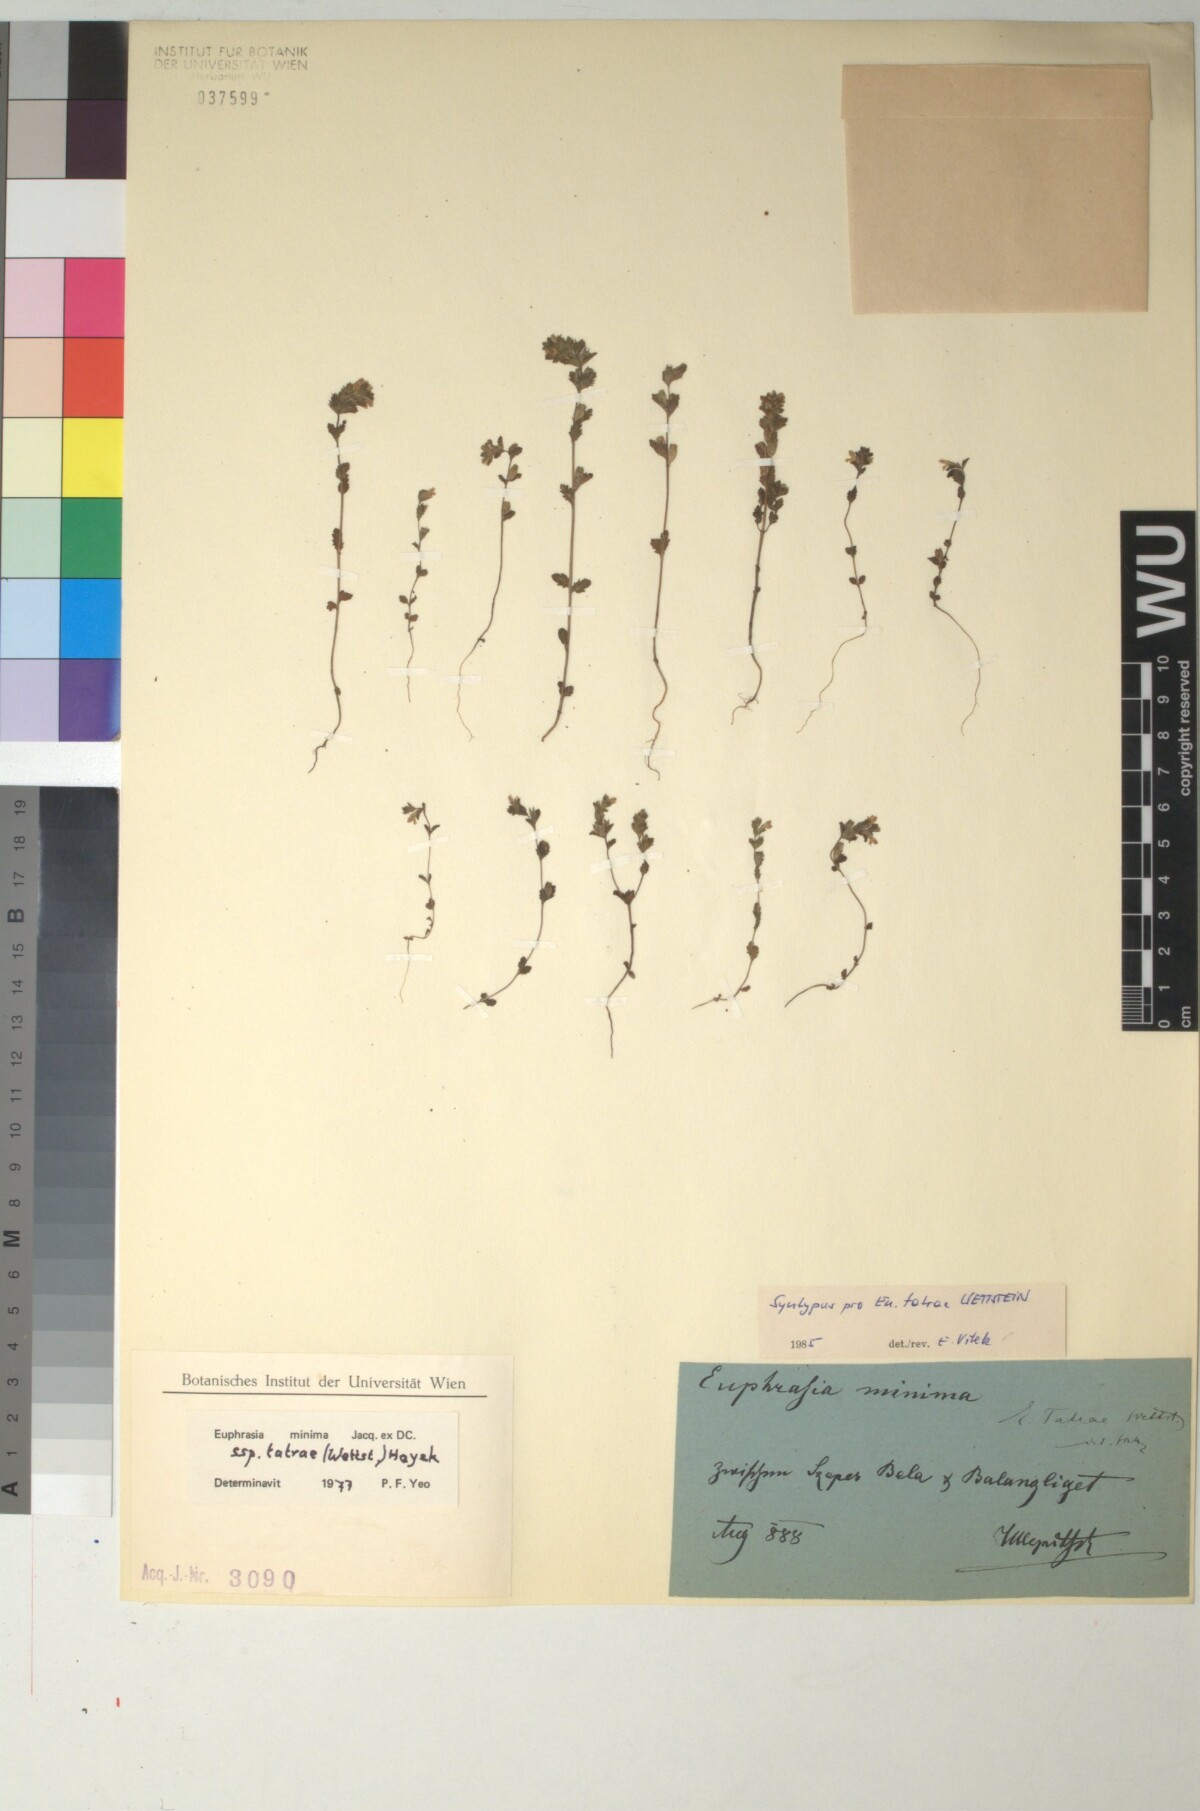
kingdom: Plantae
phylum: Tracheophyta
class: Magnoliopsida
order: Lamiales
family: Orobanchaceae
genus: Euphrasia
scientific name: Euphrasia tatrae
